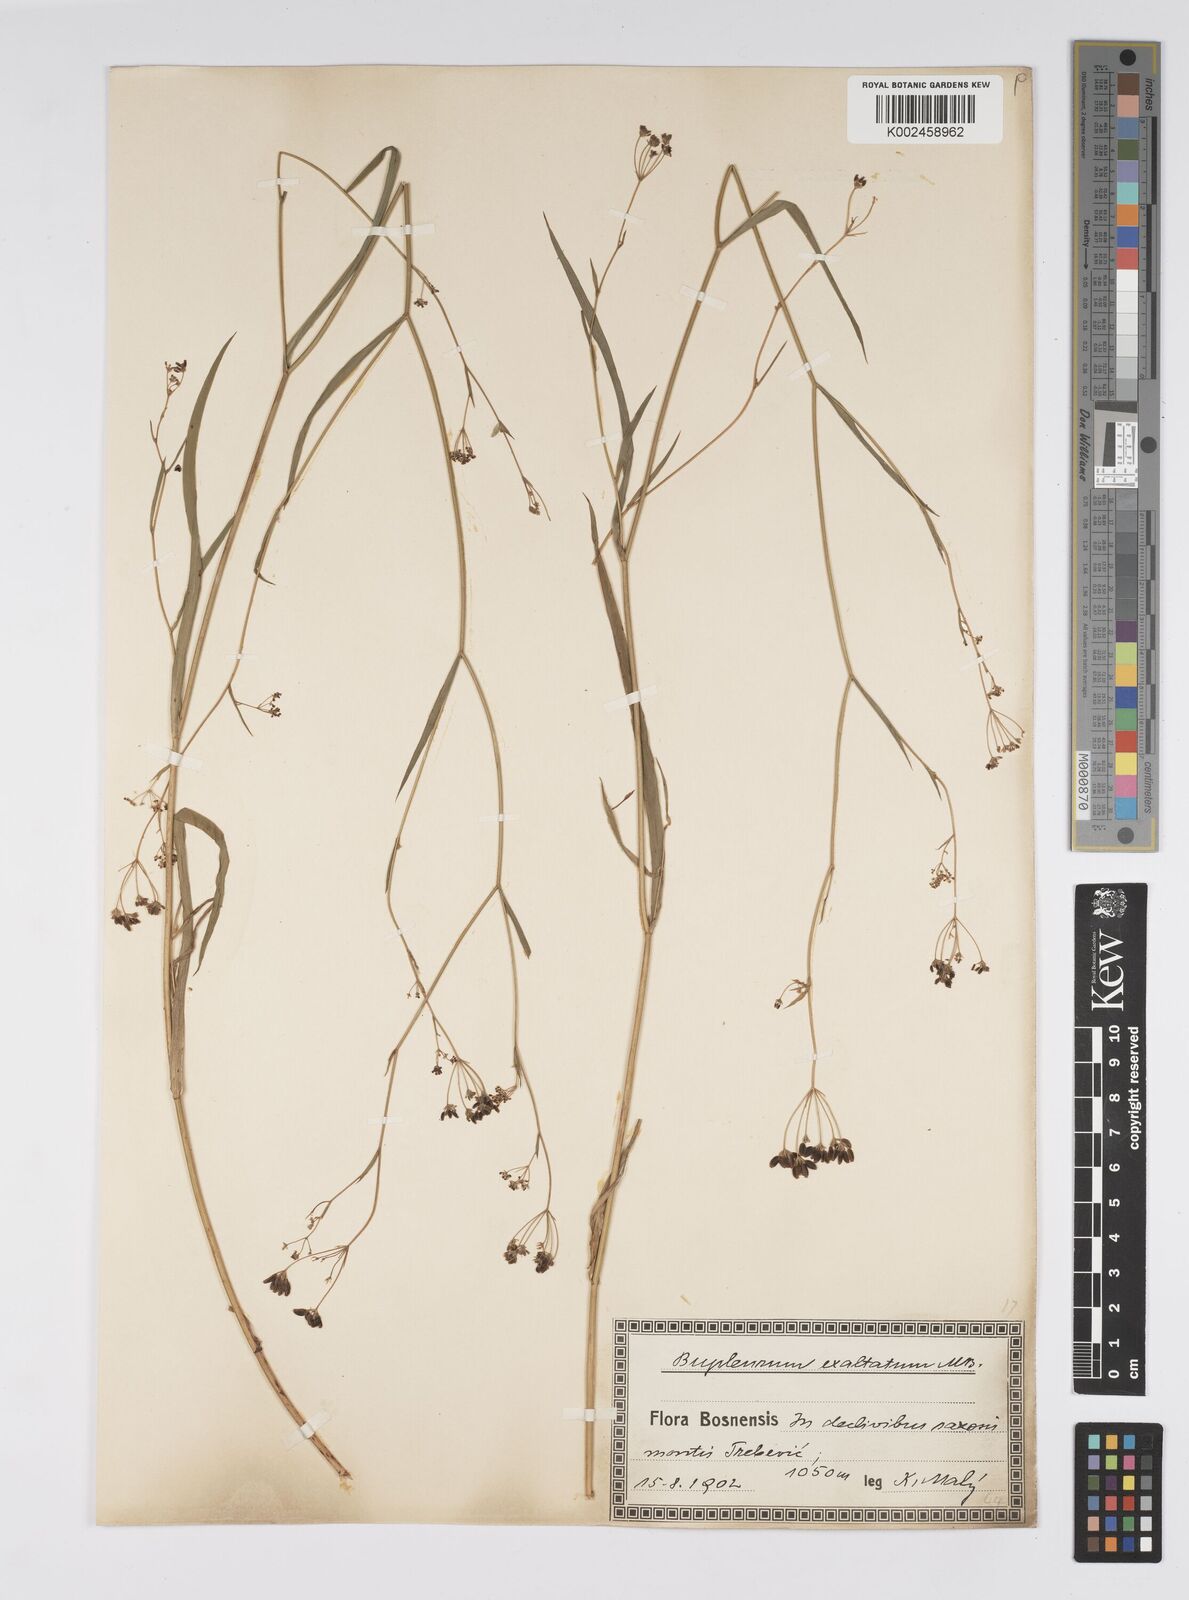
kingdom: Plantae
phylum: Tracheophyta
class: Magnoliopsida
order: Apiales
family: Apiaceae
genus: Bupleurum
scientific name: Bupleurum falcatum
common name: Sickle-leaved hare's-ear
